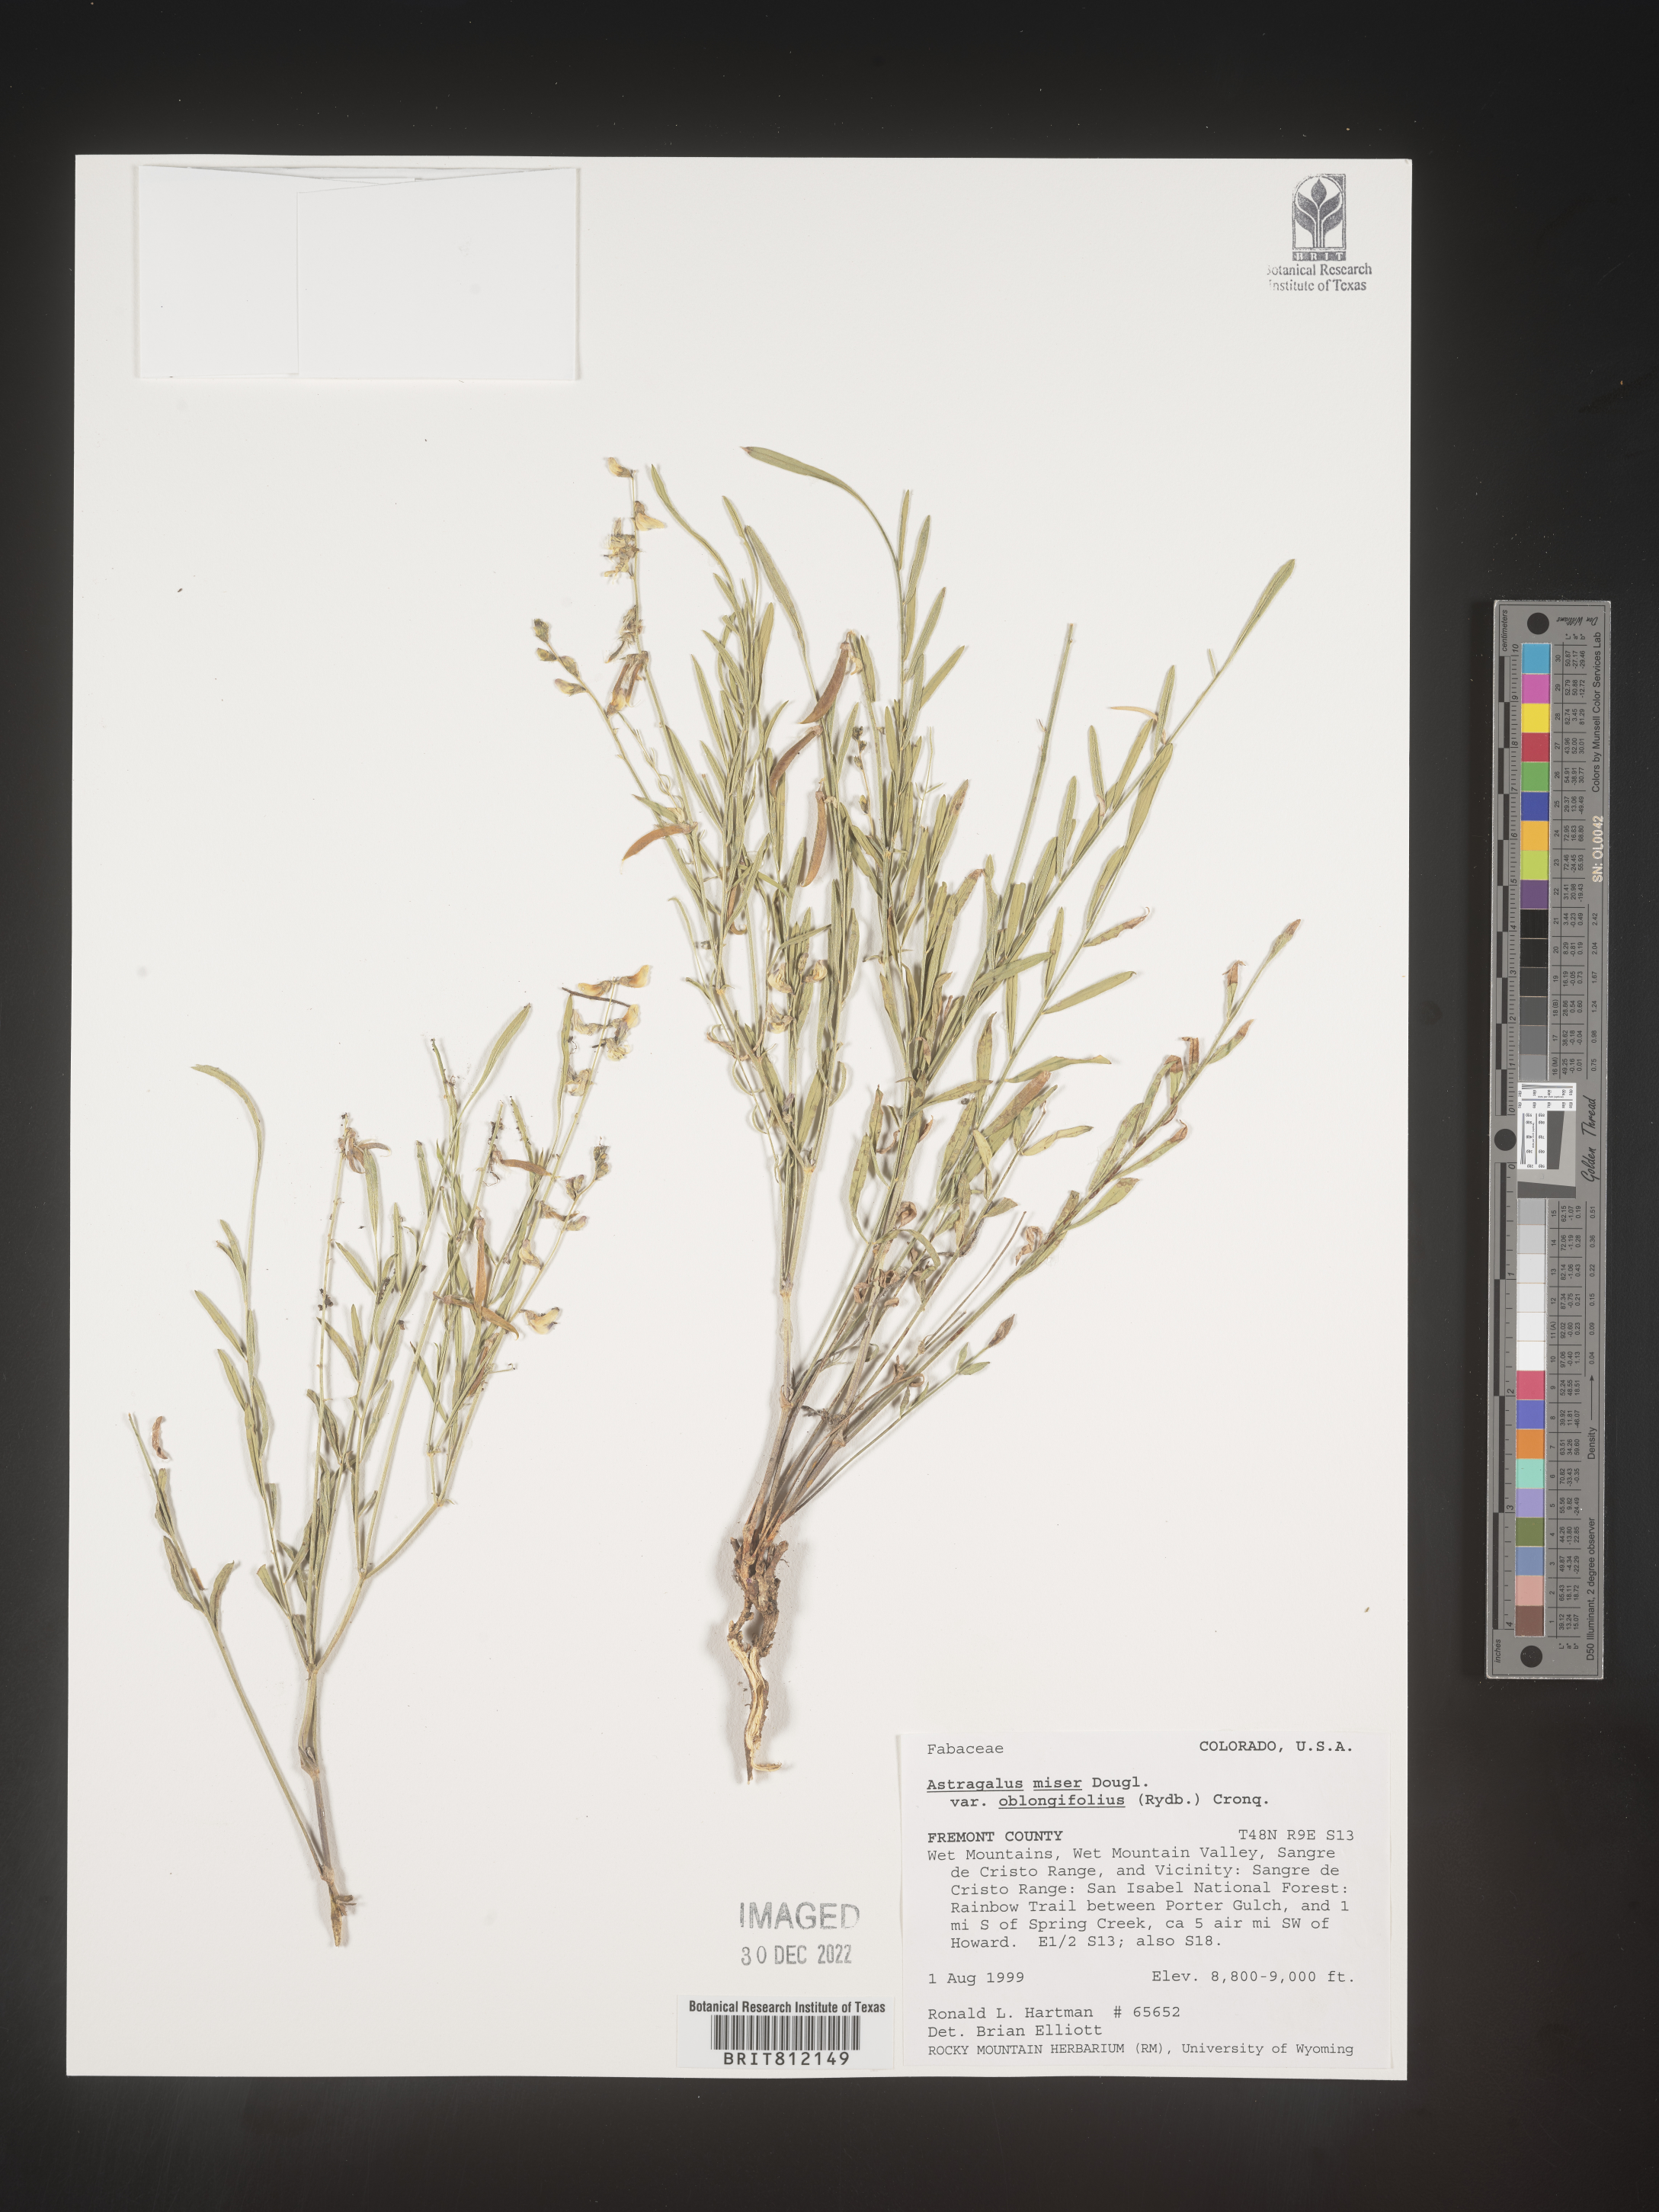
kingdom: Plantae
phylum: Tracheophyta
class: Magnoliopsida
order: Fabales
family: Fabaceae
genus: Astragalus
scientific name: Astragalus miser
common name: Timber milkvetch
